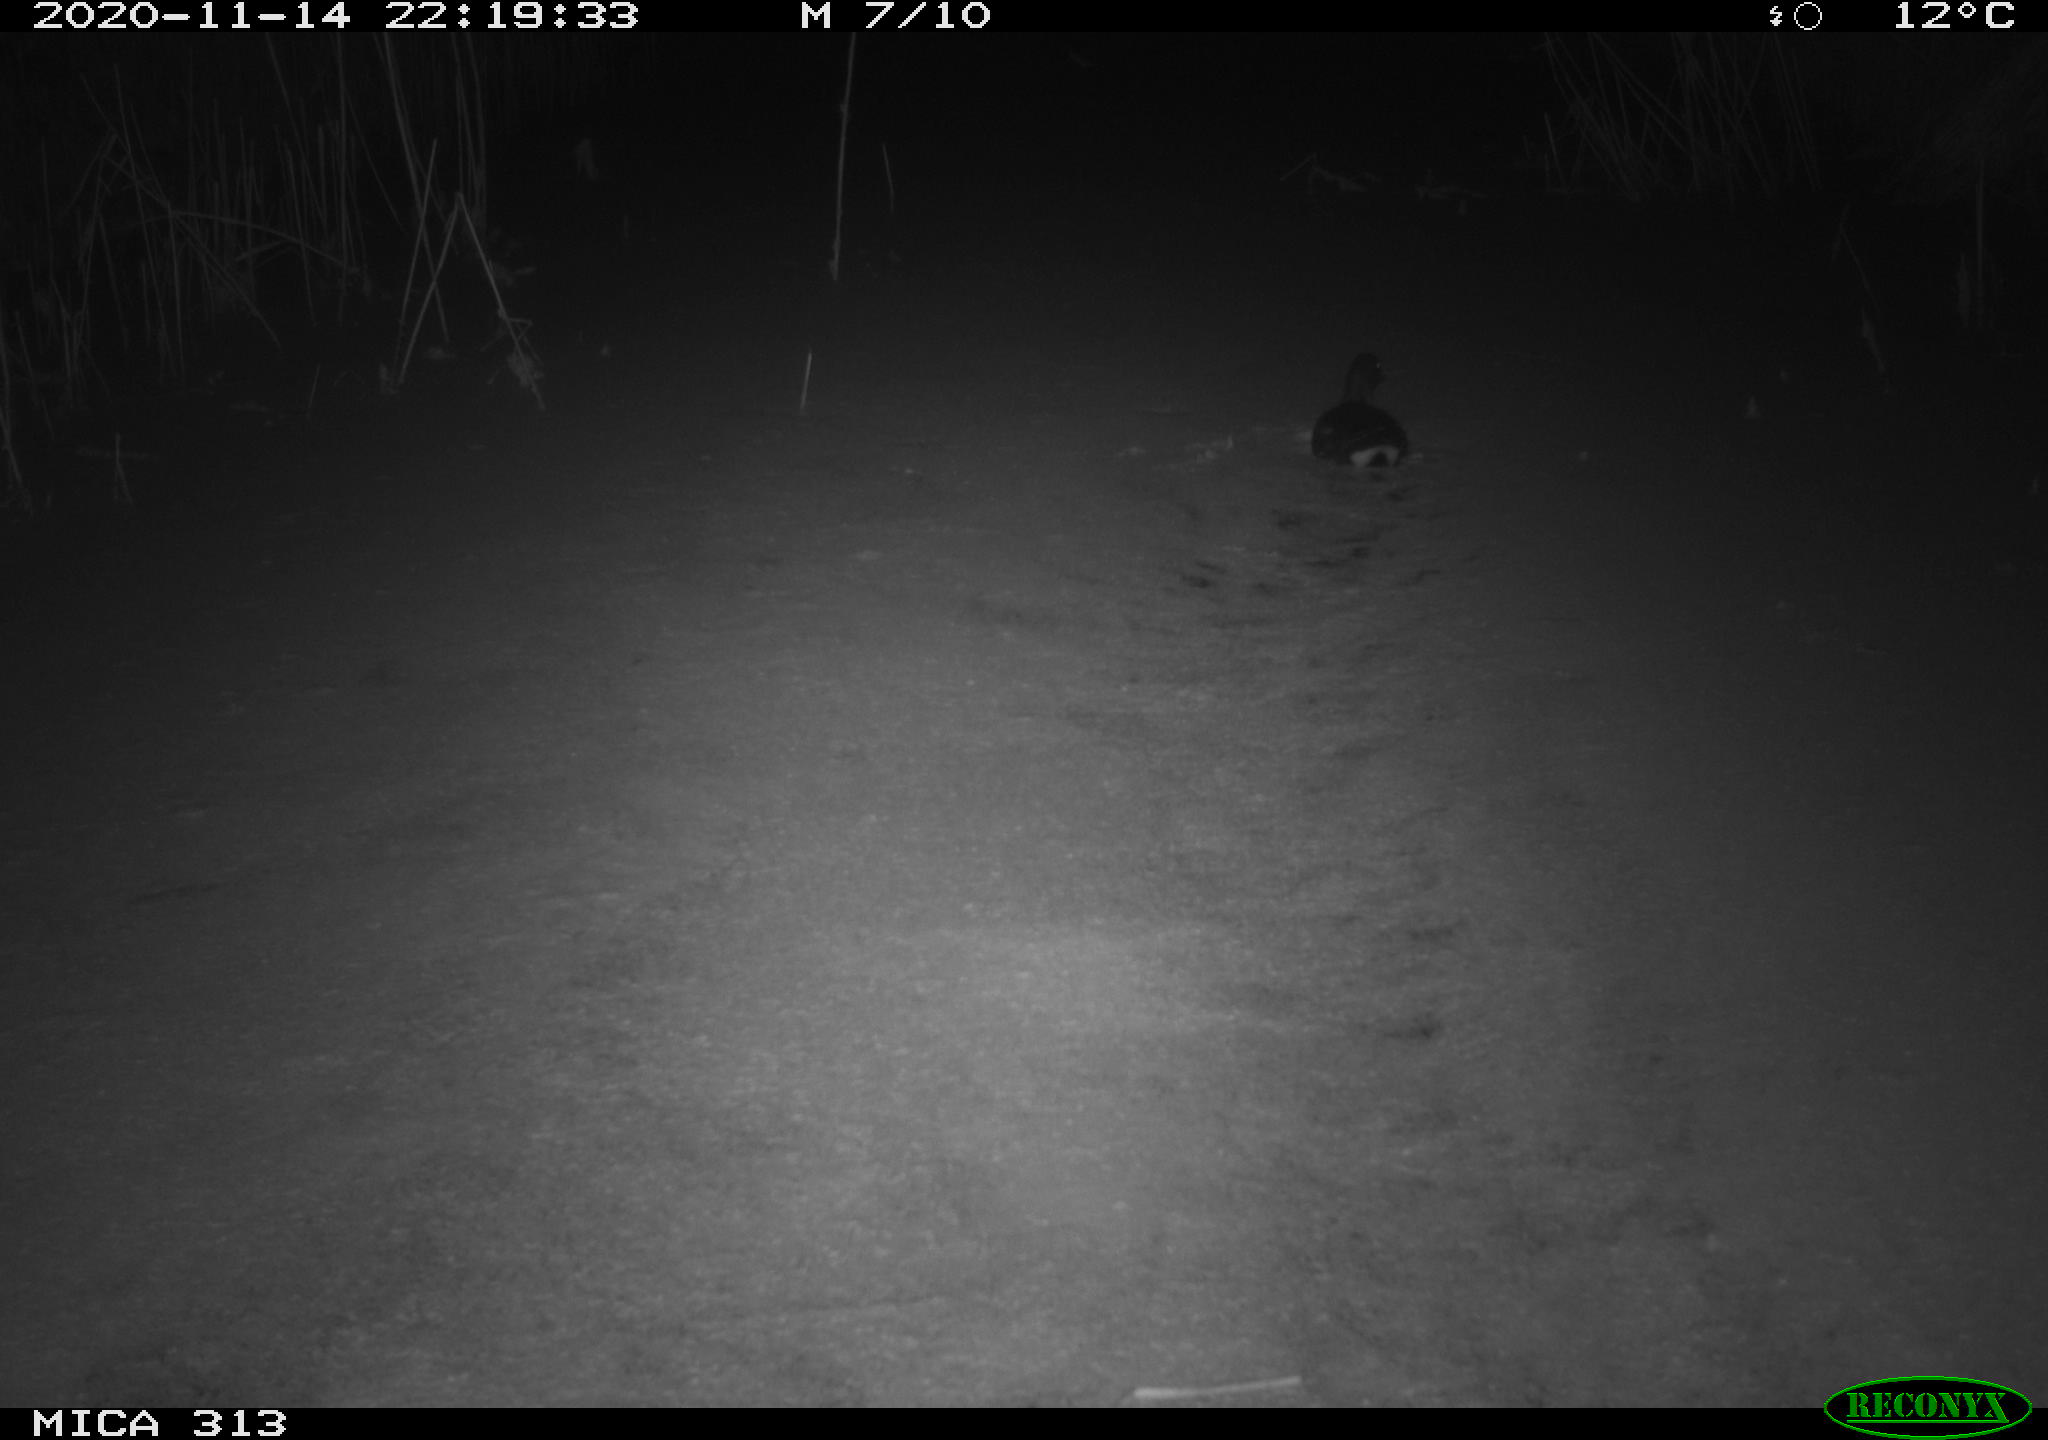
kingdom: Animalia
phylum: Chordata
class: Aves
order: Gruiformes
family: Rallidae
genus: Gallinula
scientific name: Gallinula chloropus
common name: Common moorhen
